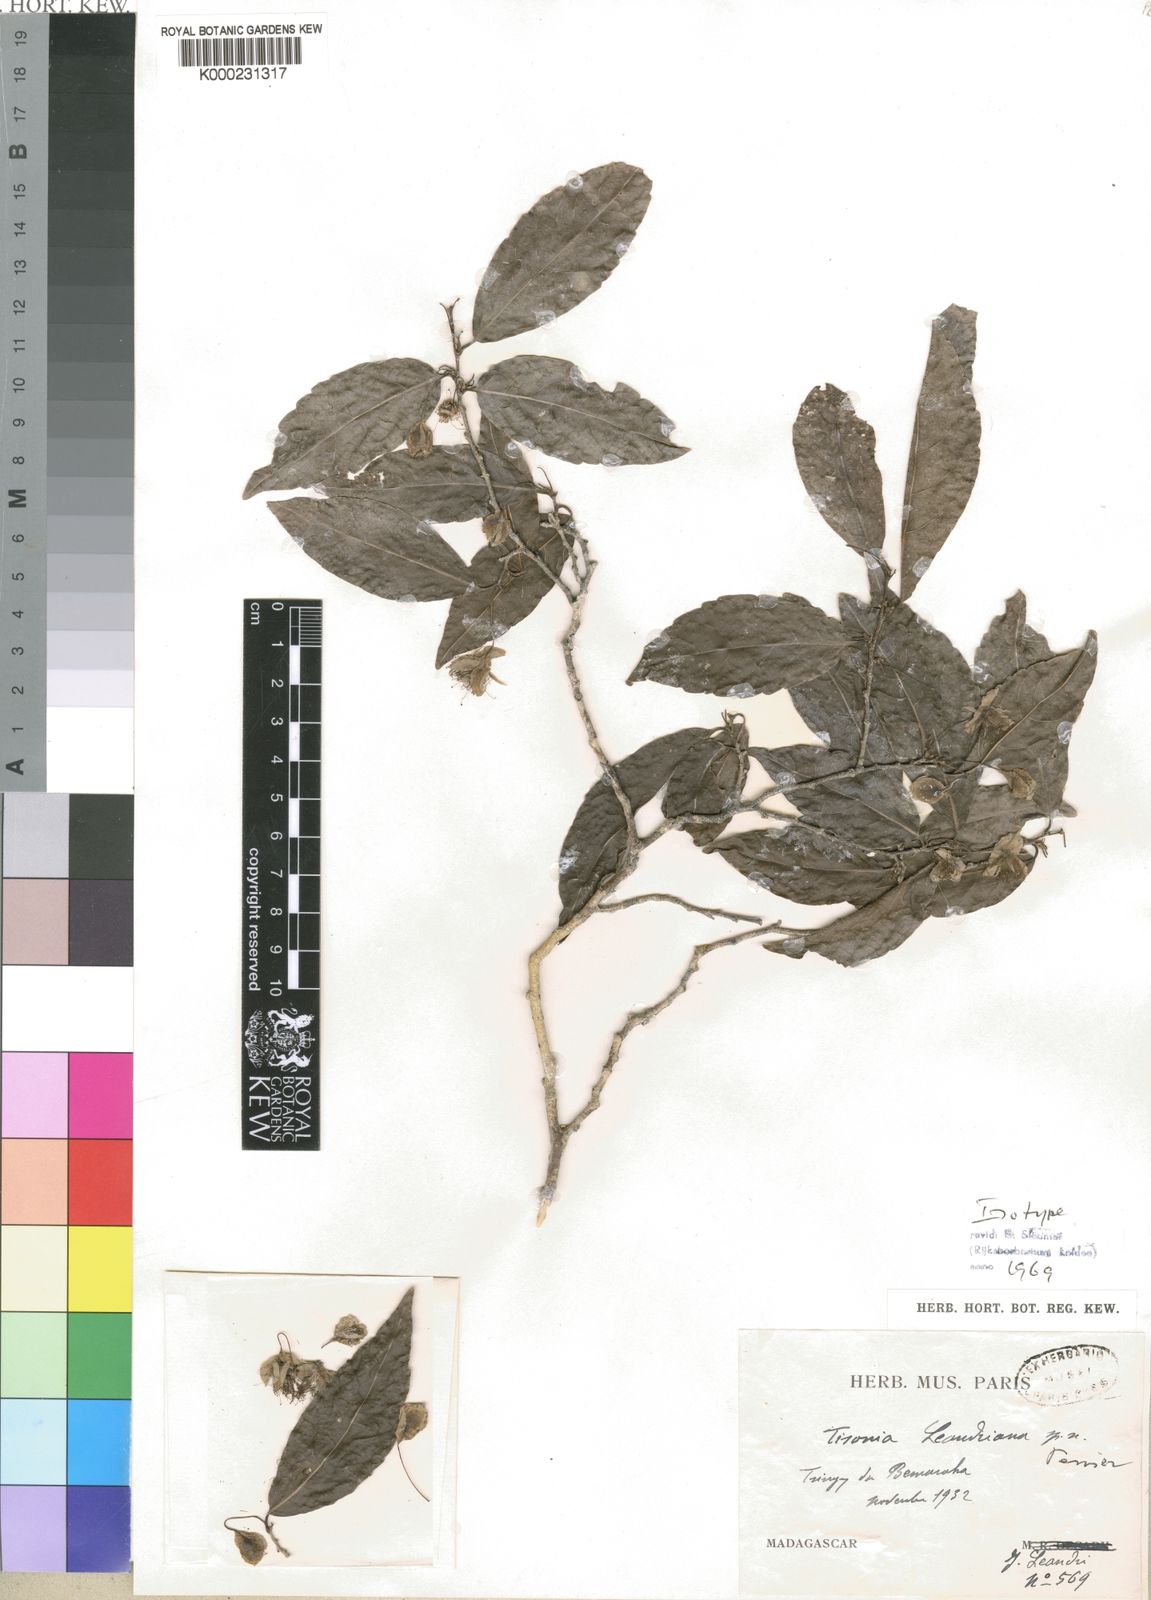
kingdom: Plantae
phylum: Tracheophyta
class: Magnoliopsida
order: Malpighiales
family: Salicaceae
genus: Tisonia
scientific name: Tisonia leandriana
